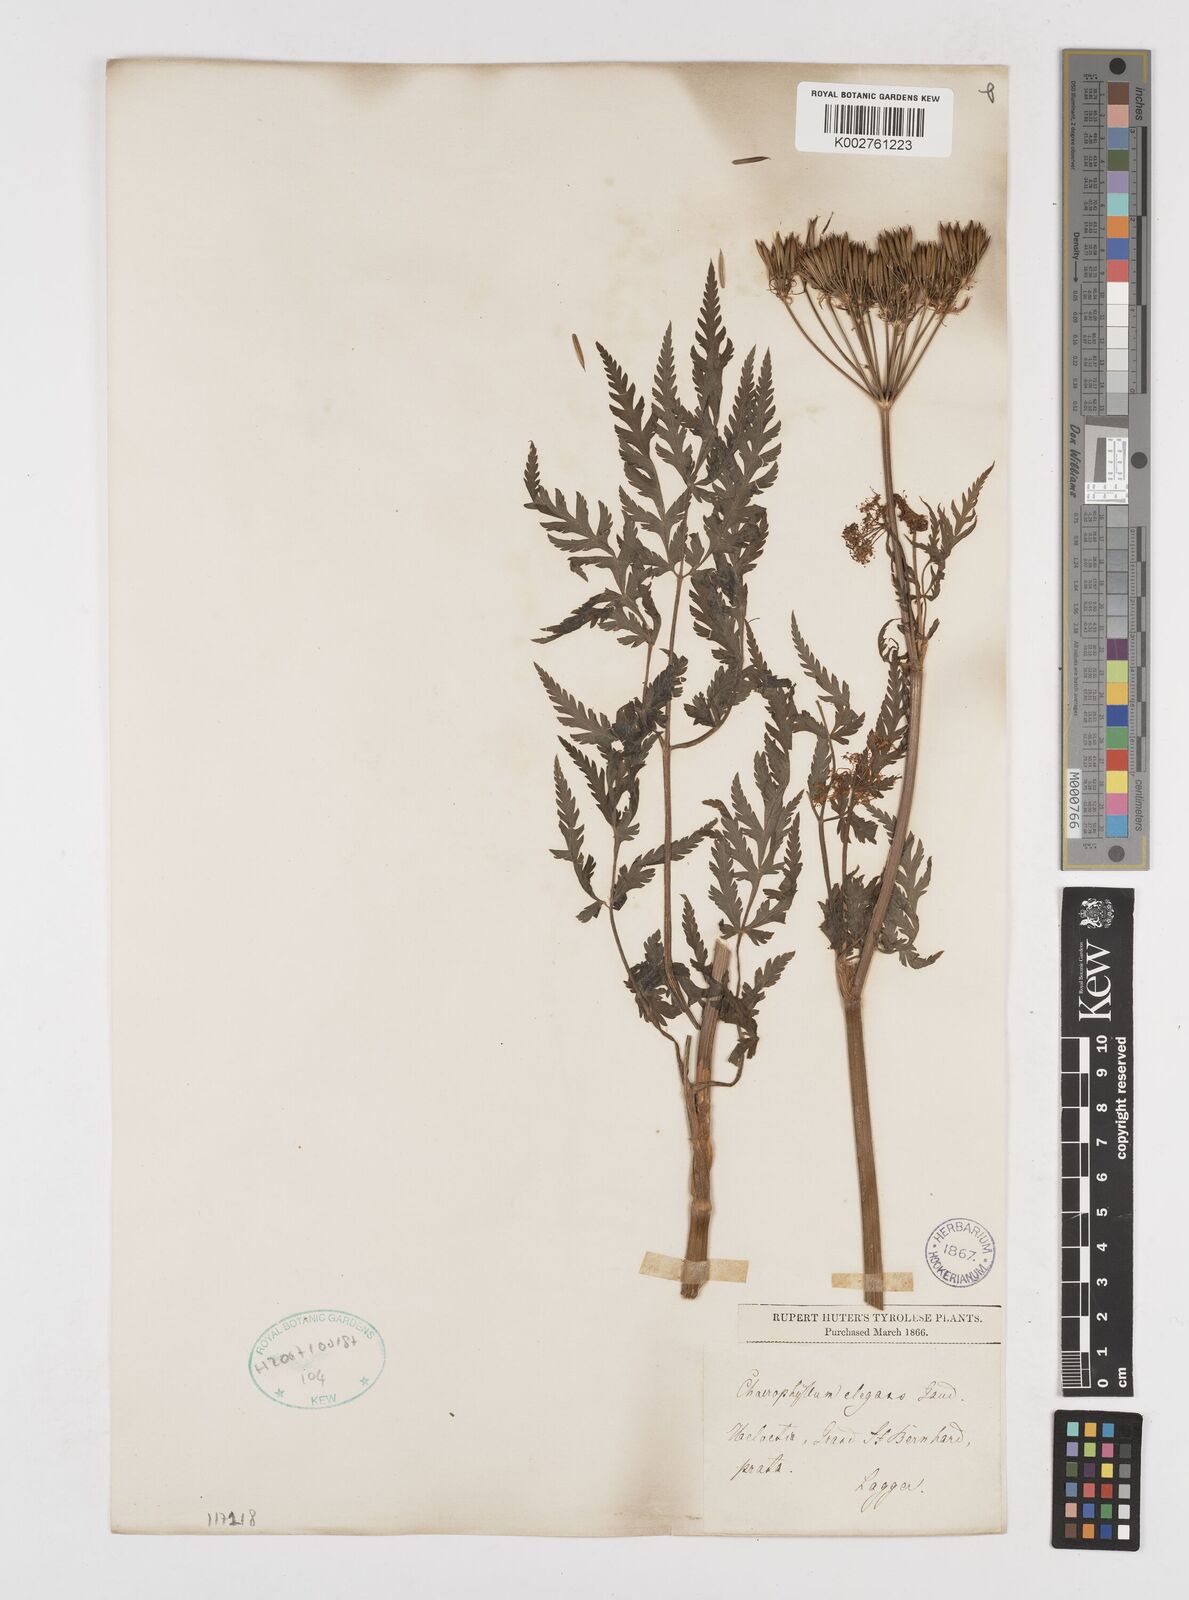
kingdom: Plantae
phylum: Tracheophyta
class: Magnoliopsida
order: Apiales
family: Apiaceae
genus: Chaerophyllum
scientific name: Chaerophyllum elegans
